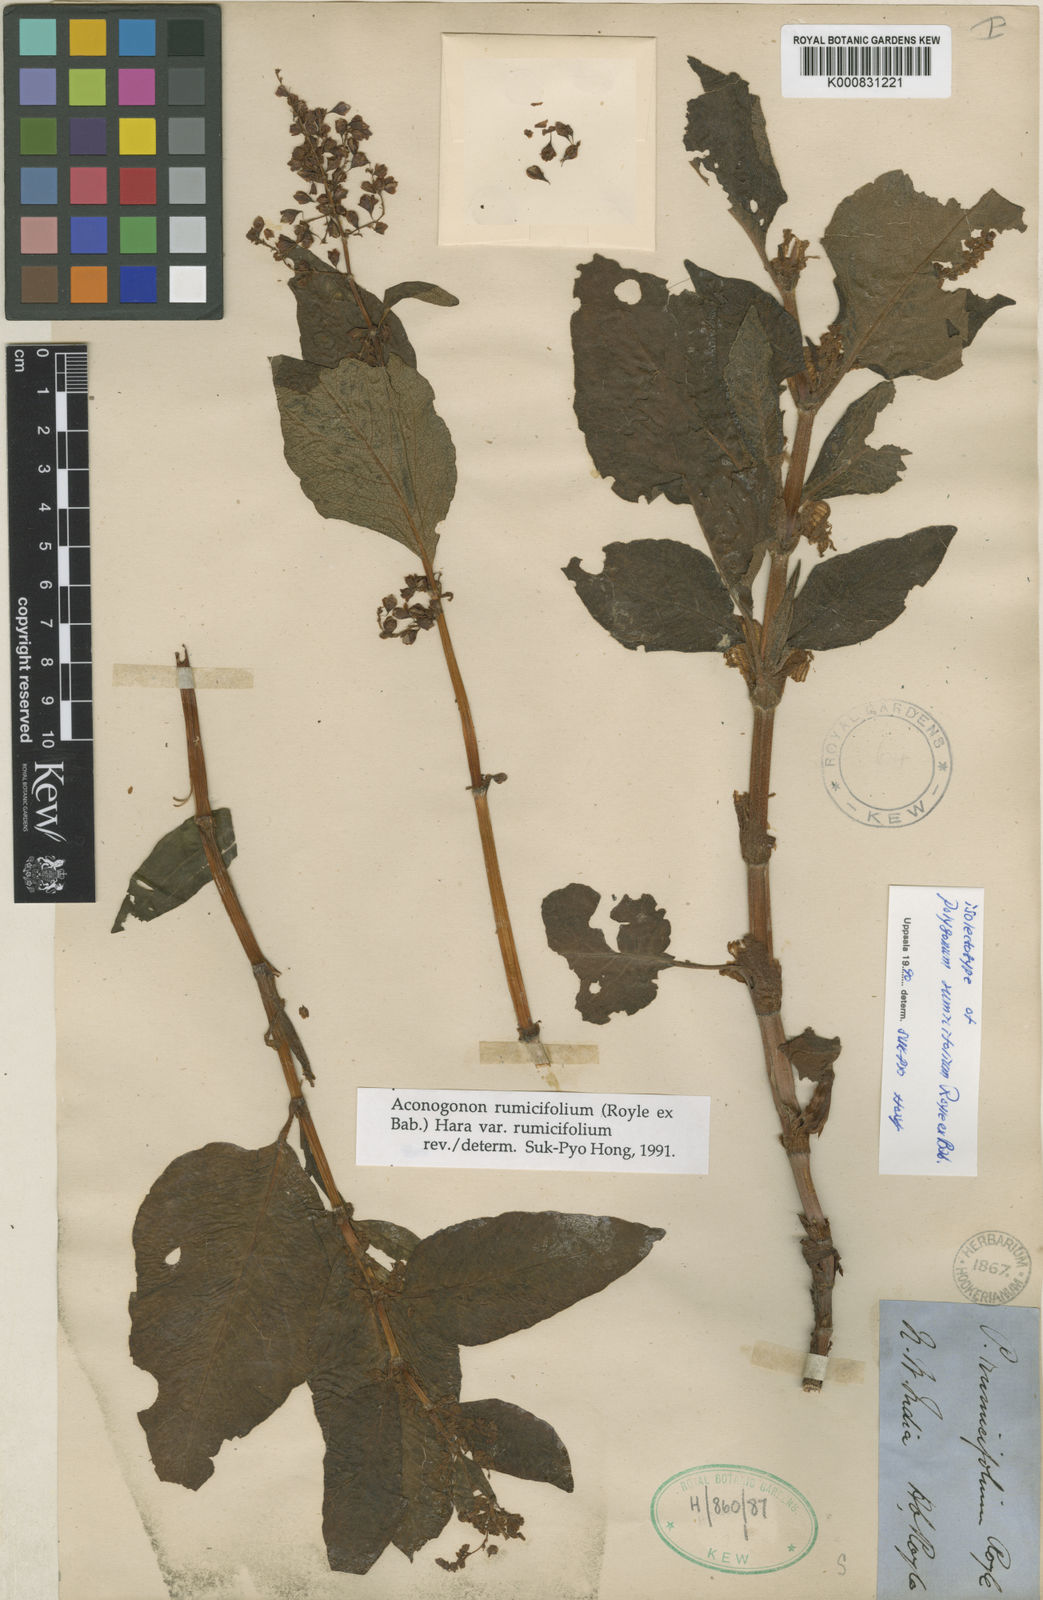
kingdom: Plantae
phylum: Tracheophyta
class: Magnoliopsida
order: Caryophyllales
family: Polygonaceae
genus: Koenigia
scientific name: Koenigia rumicifolia
